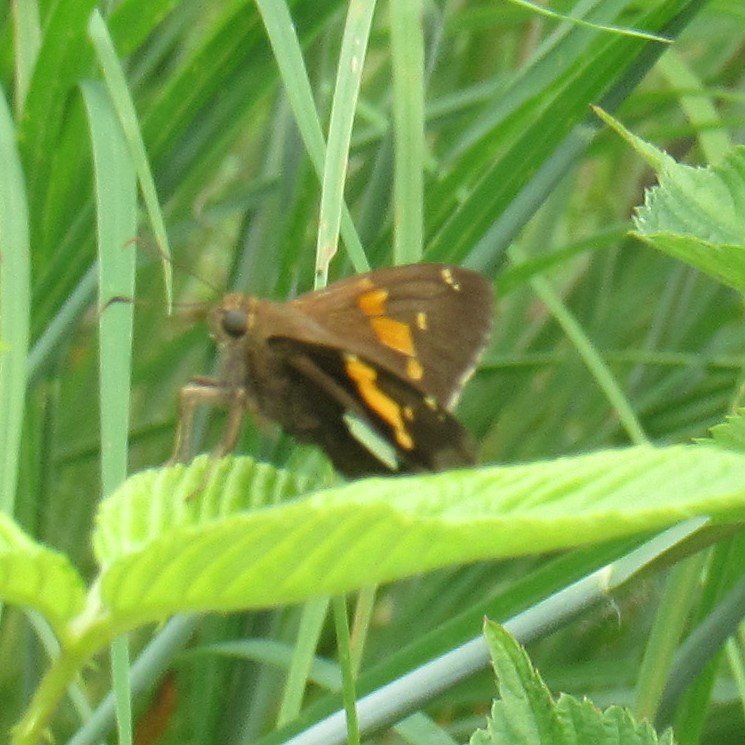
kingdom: Animalia
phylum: Arthropoda
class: Insecta
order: Lepidoptera
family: Hesperiidae
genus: Epargyreus
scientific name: Epargyreus clarus
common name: Silver-spotted Skipper
